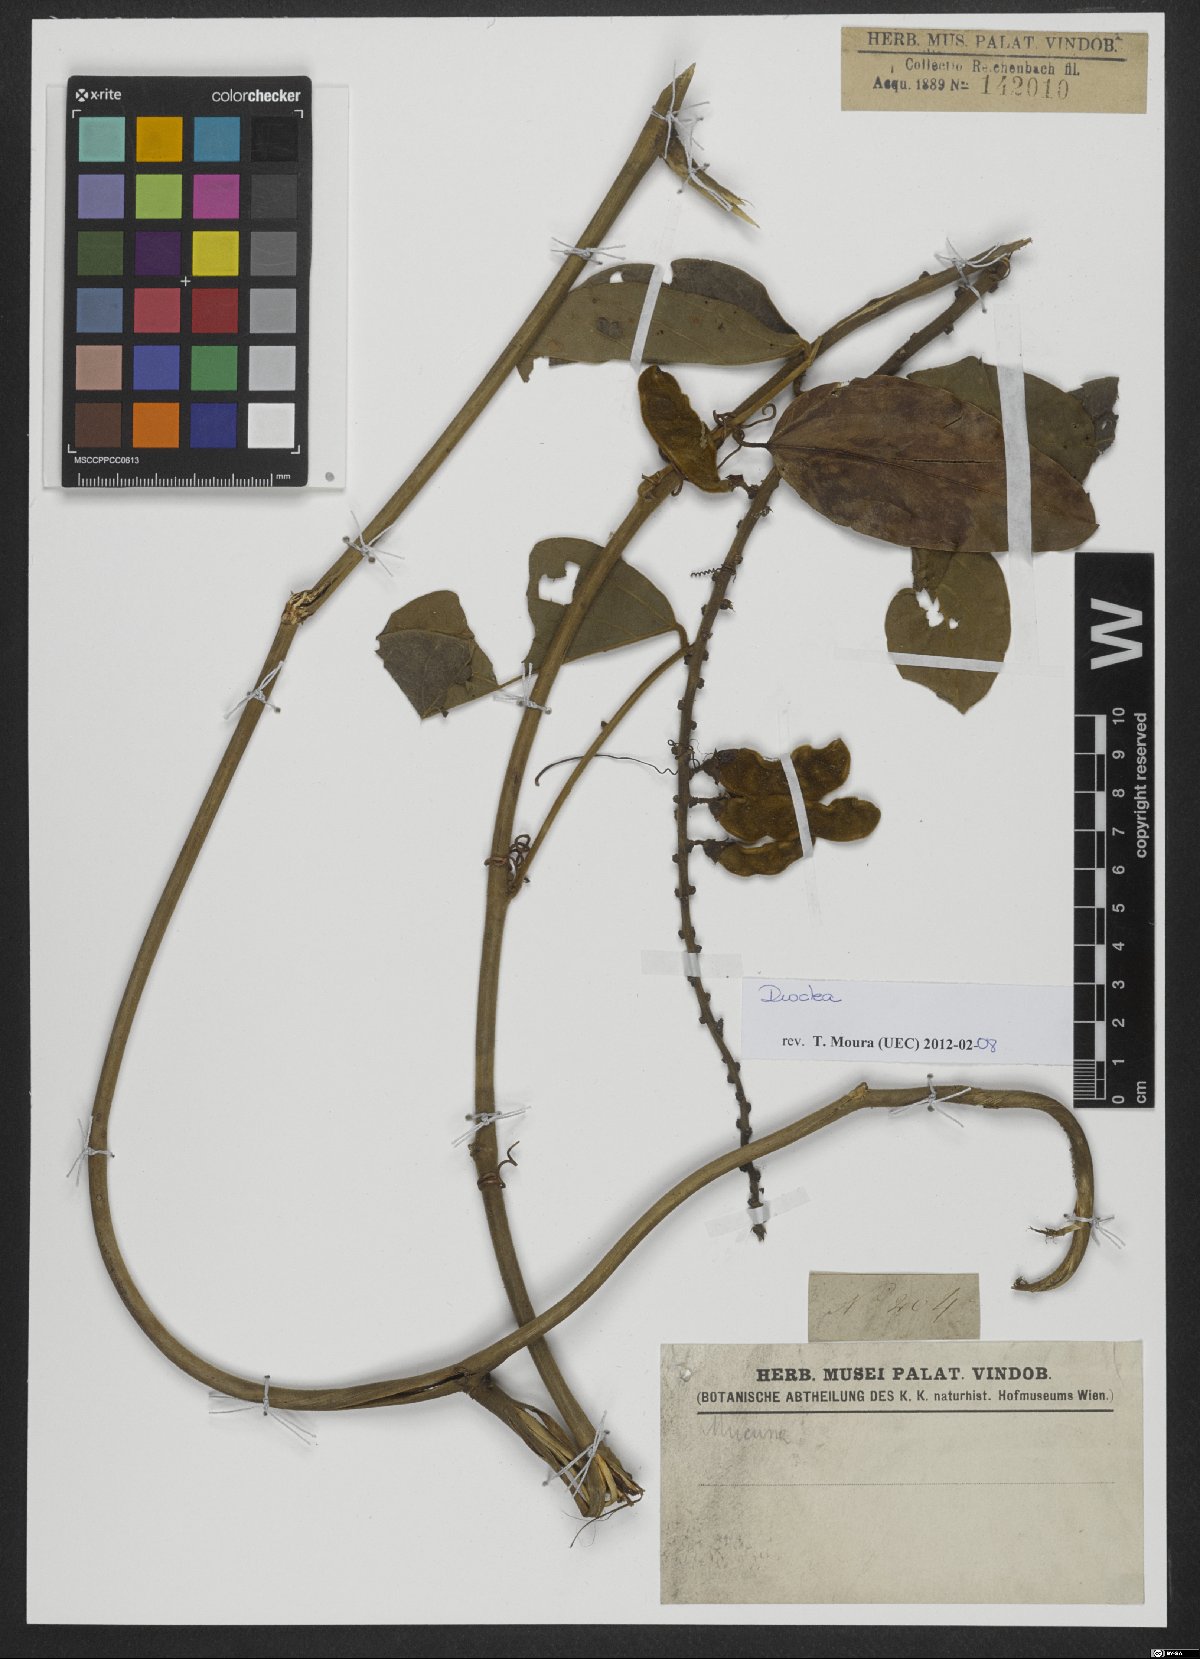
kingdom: Plantae
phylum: Tracheophyta
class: Magnoliopsida
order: Fabales
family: Fabaceae
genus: Dioclea
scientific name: Dioclea
